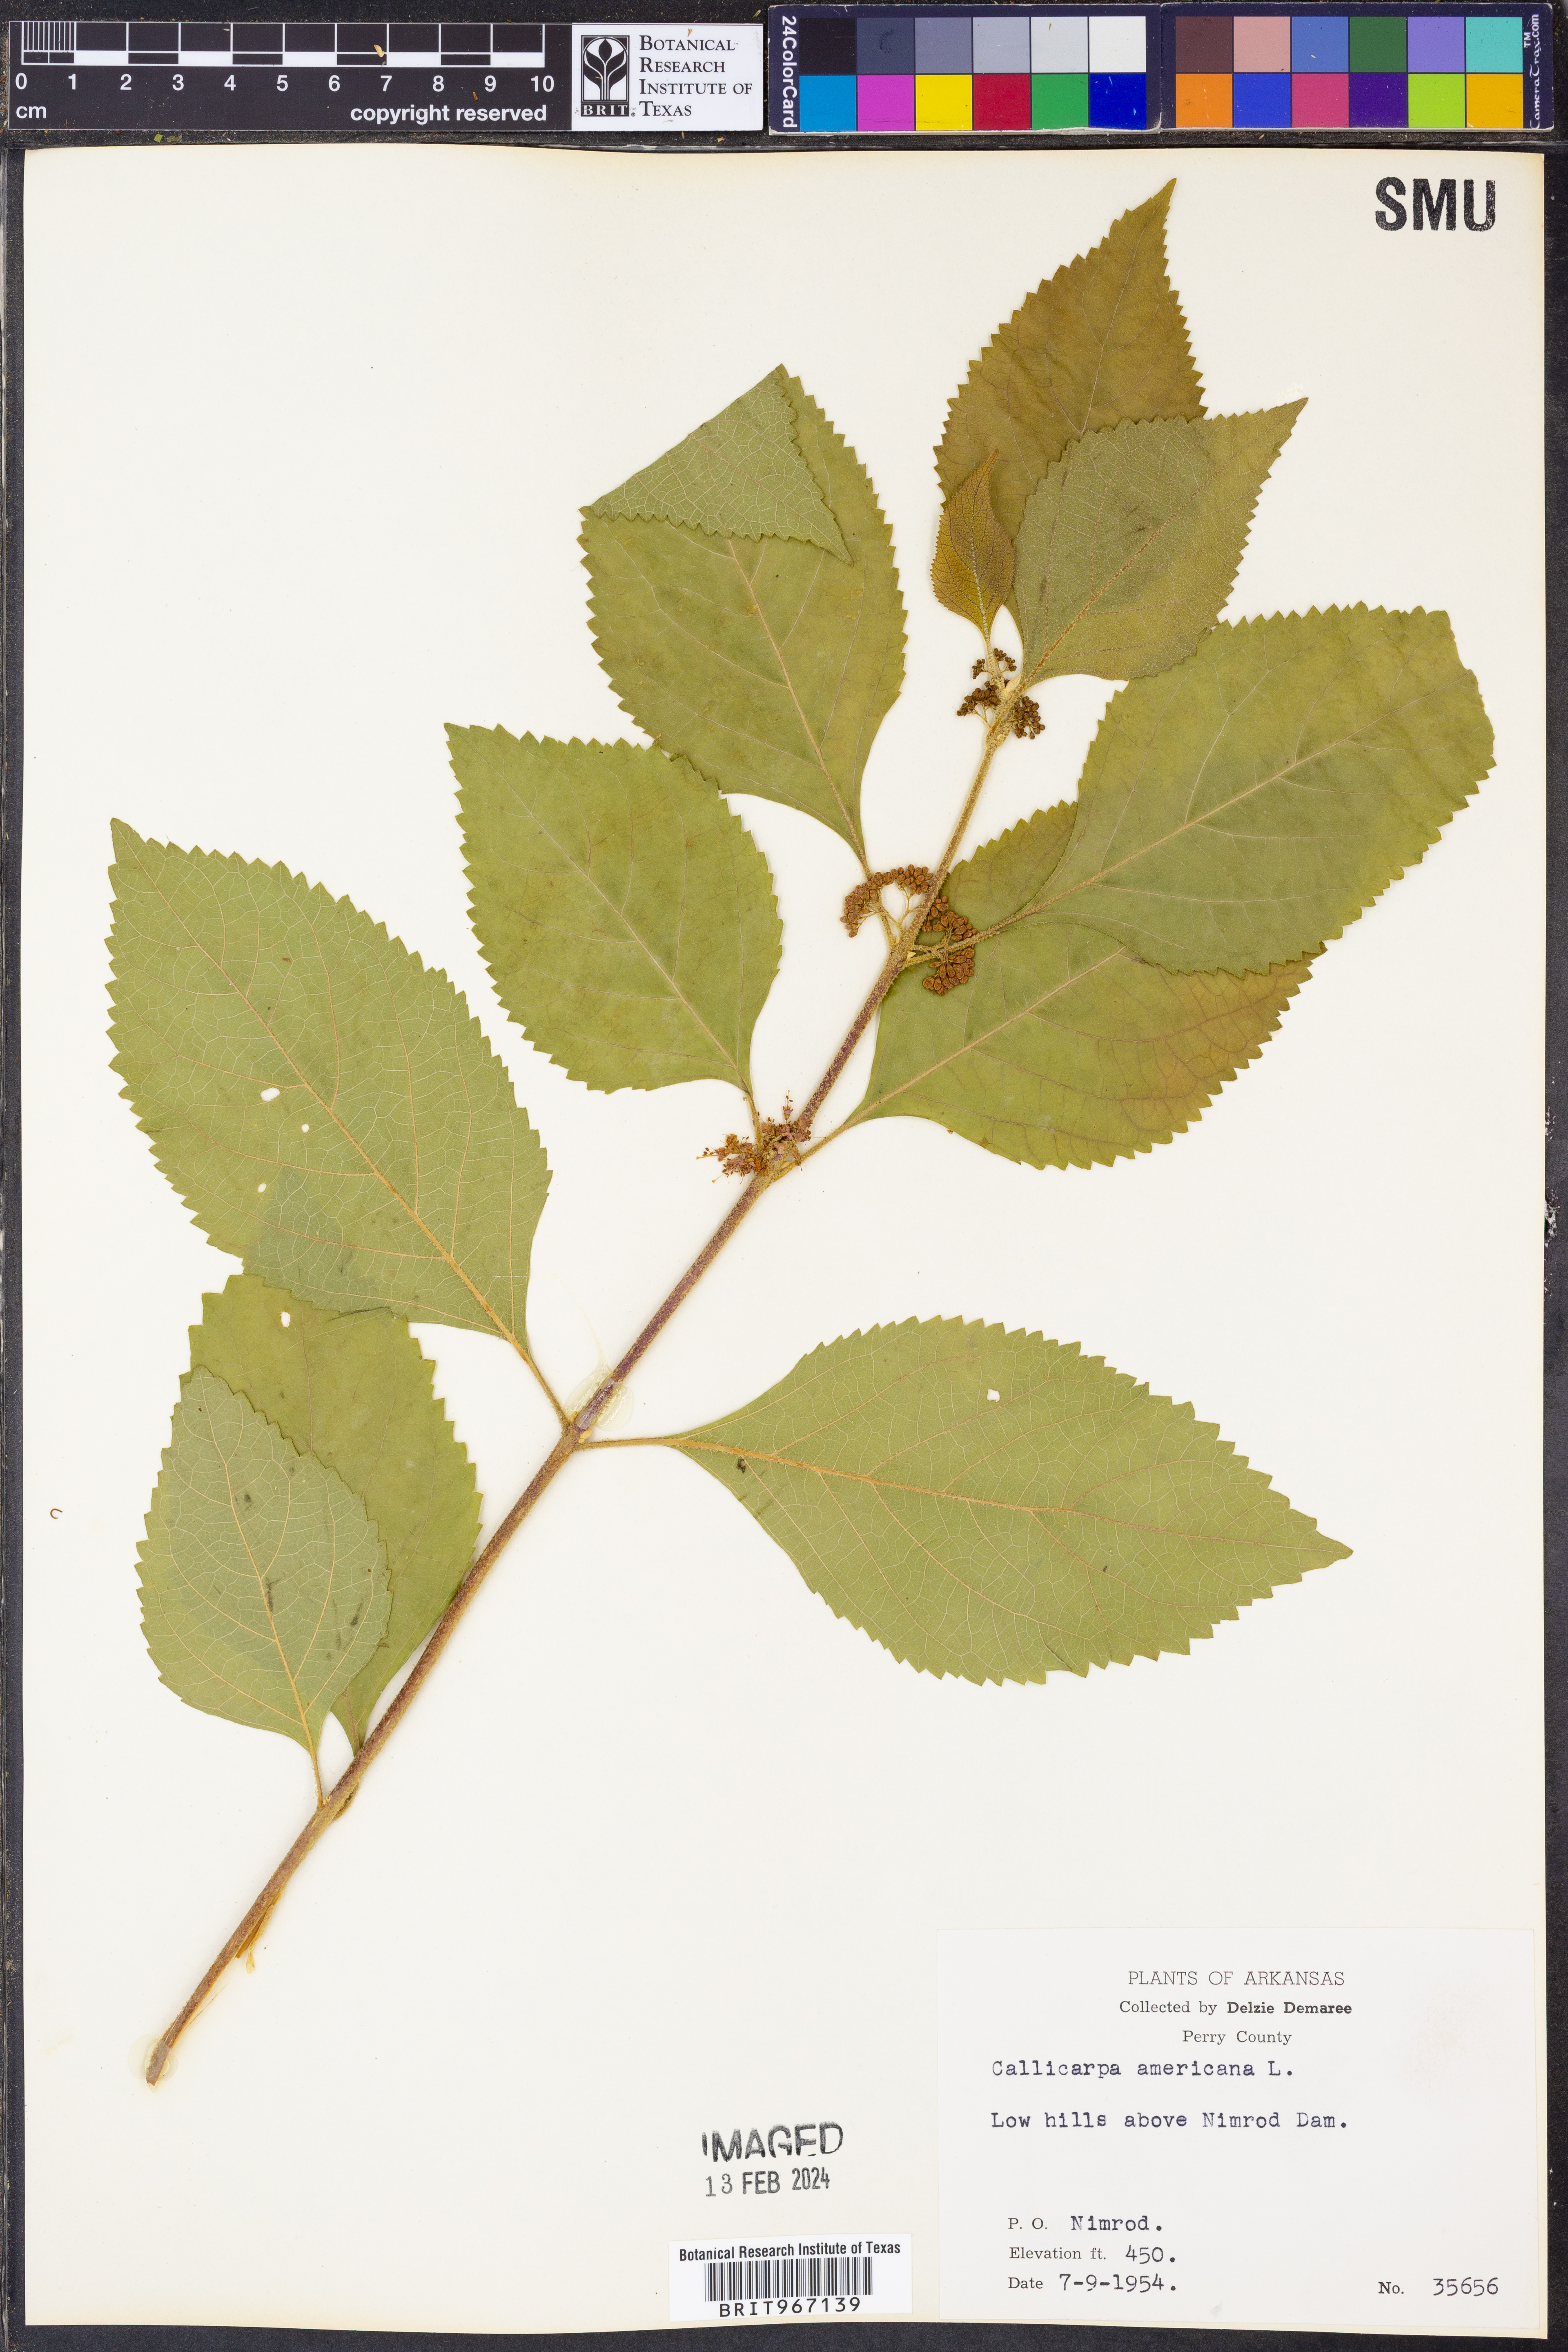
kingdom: Plantae
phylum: Tracheophyta
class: Magnoliopsida
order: Lamiales
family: Lamiaceae
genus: Callicarpa
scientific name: Callicarpa americana
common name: American beautyberry
